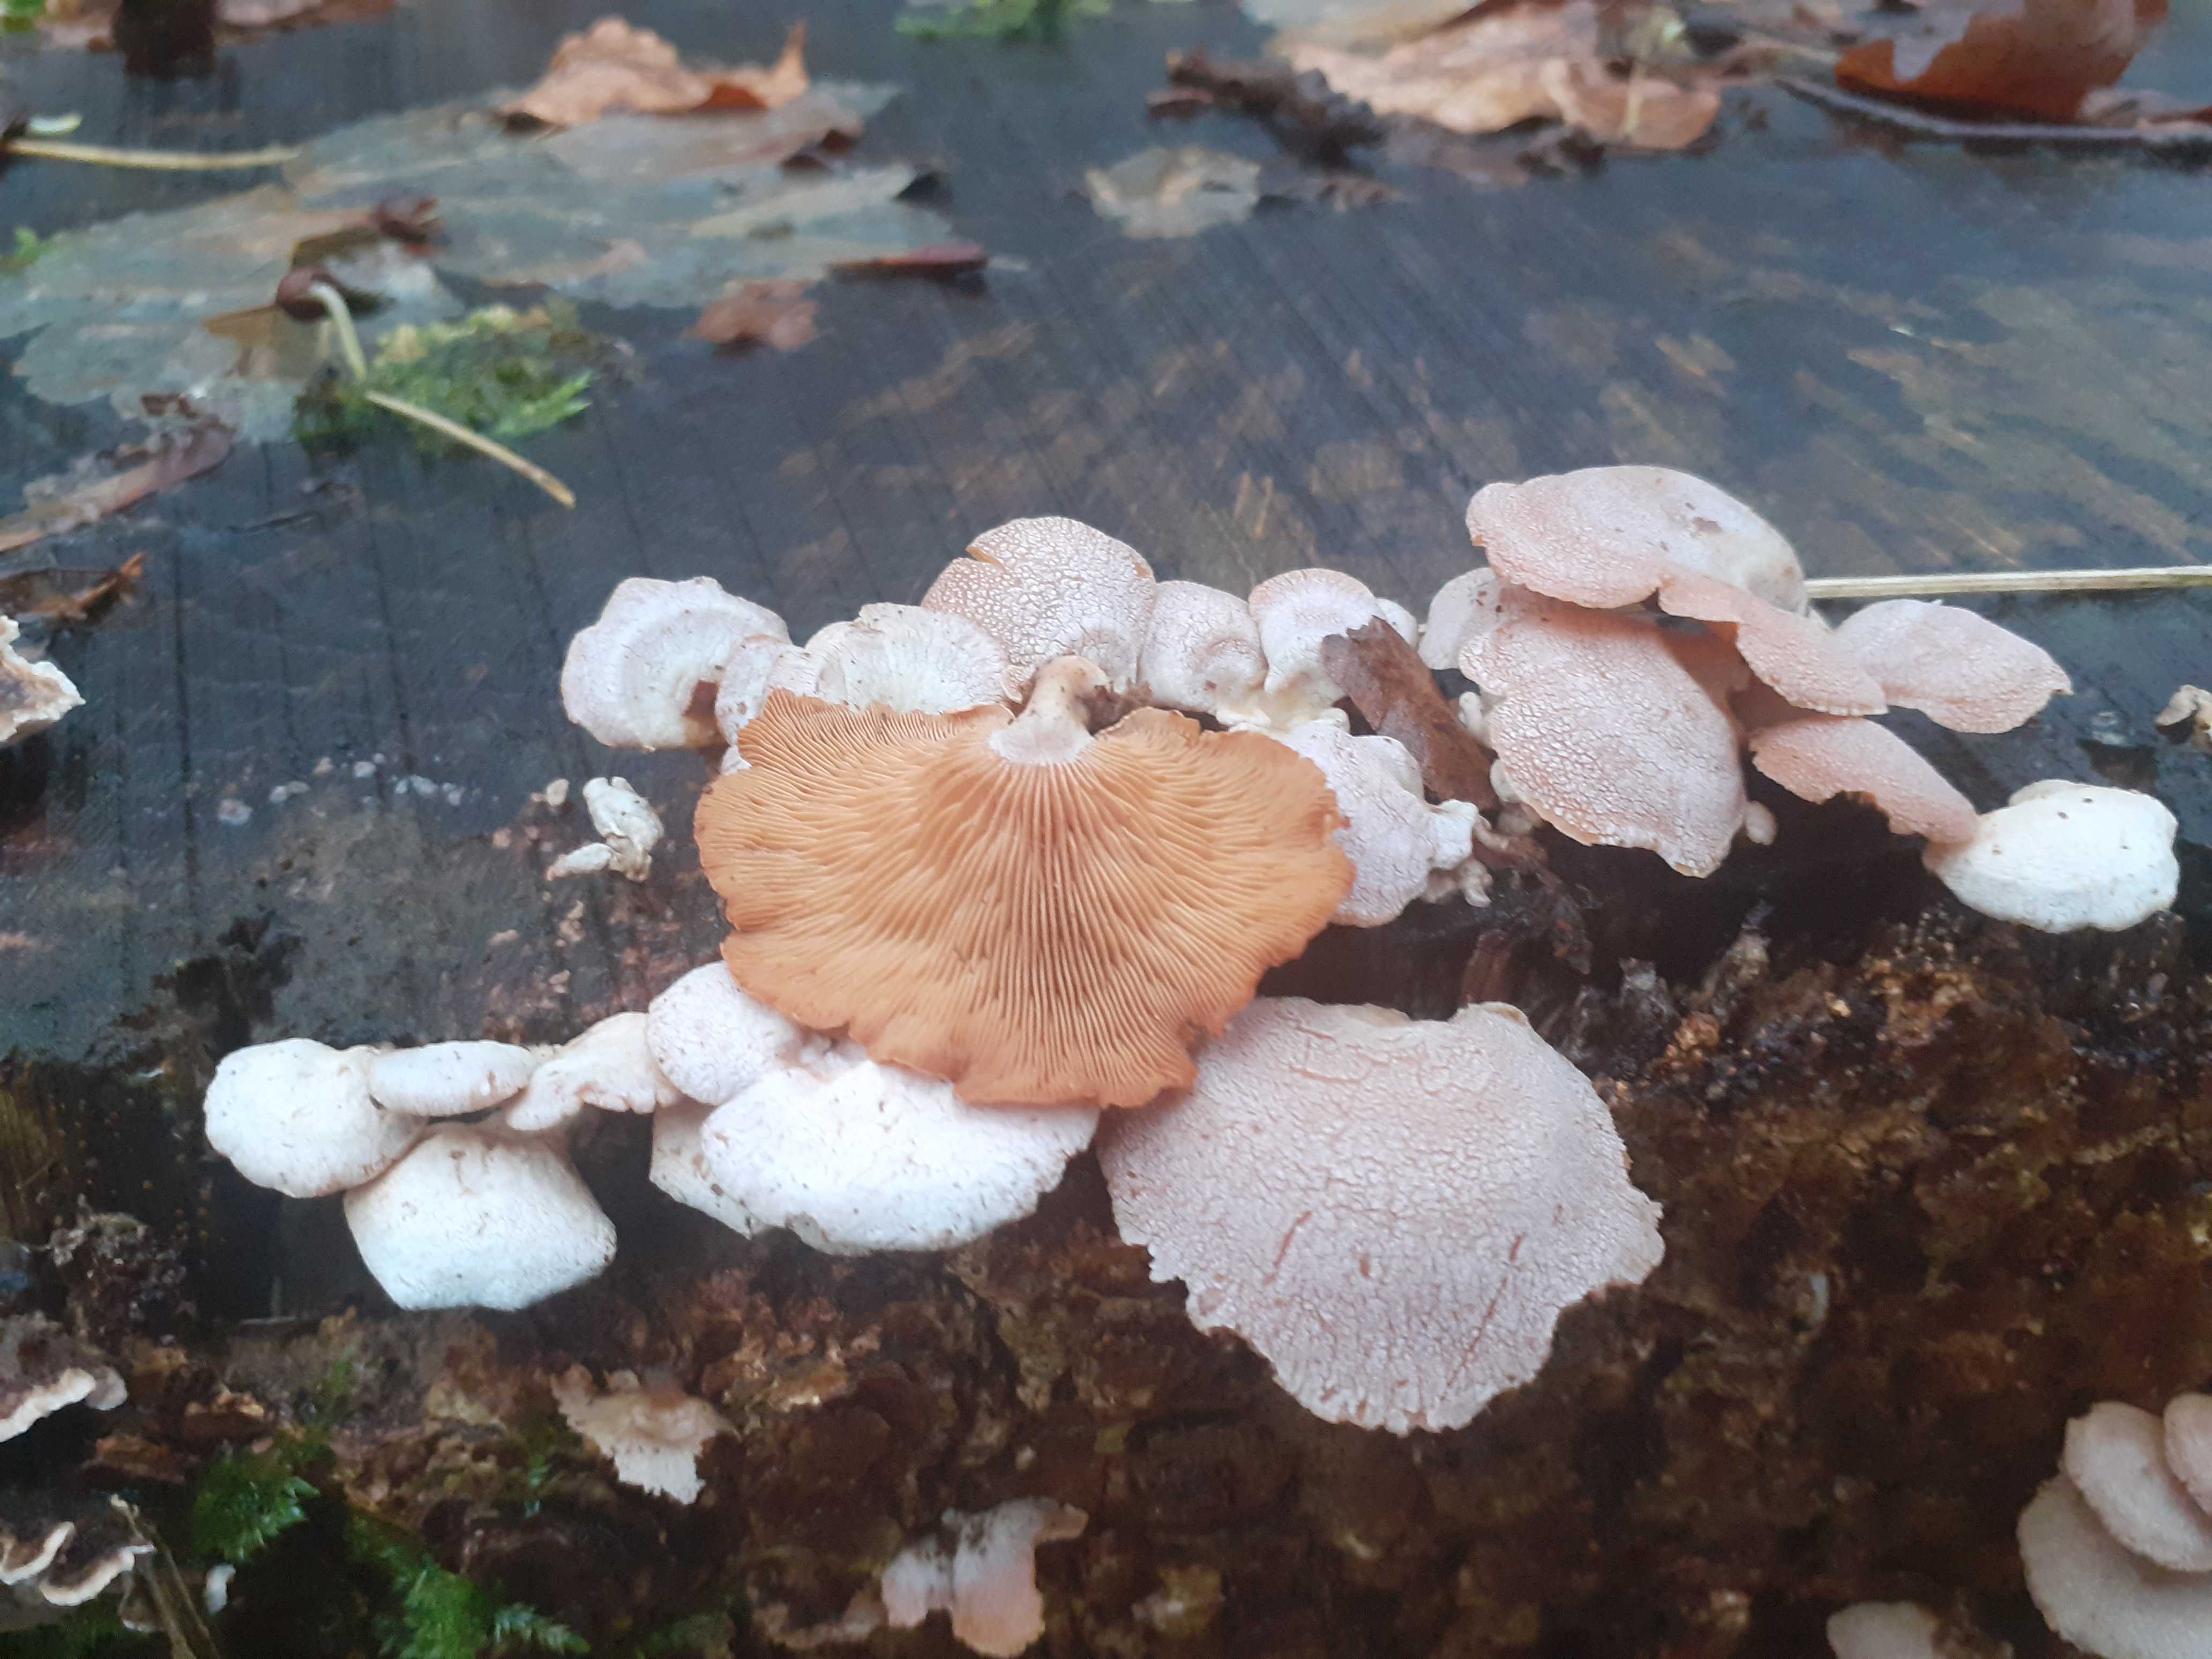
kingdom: Fungi
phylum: Basidiomycota
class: Agaricomycetes
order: Agaricales
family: Mycenaceae
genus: Panellus
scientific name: Panellus stipticus
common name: kliddet epaulethat
